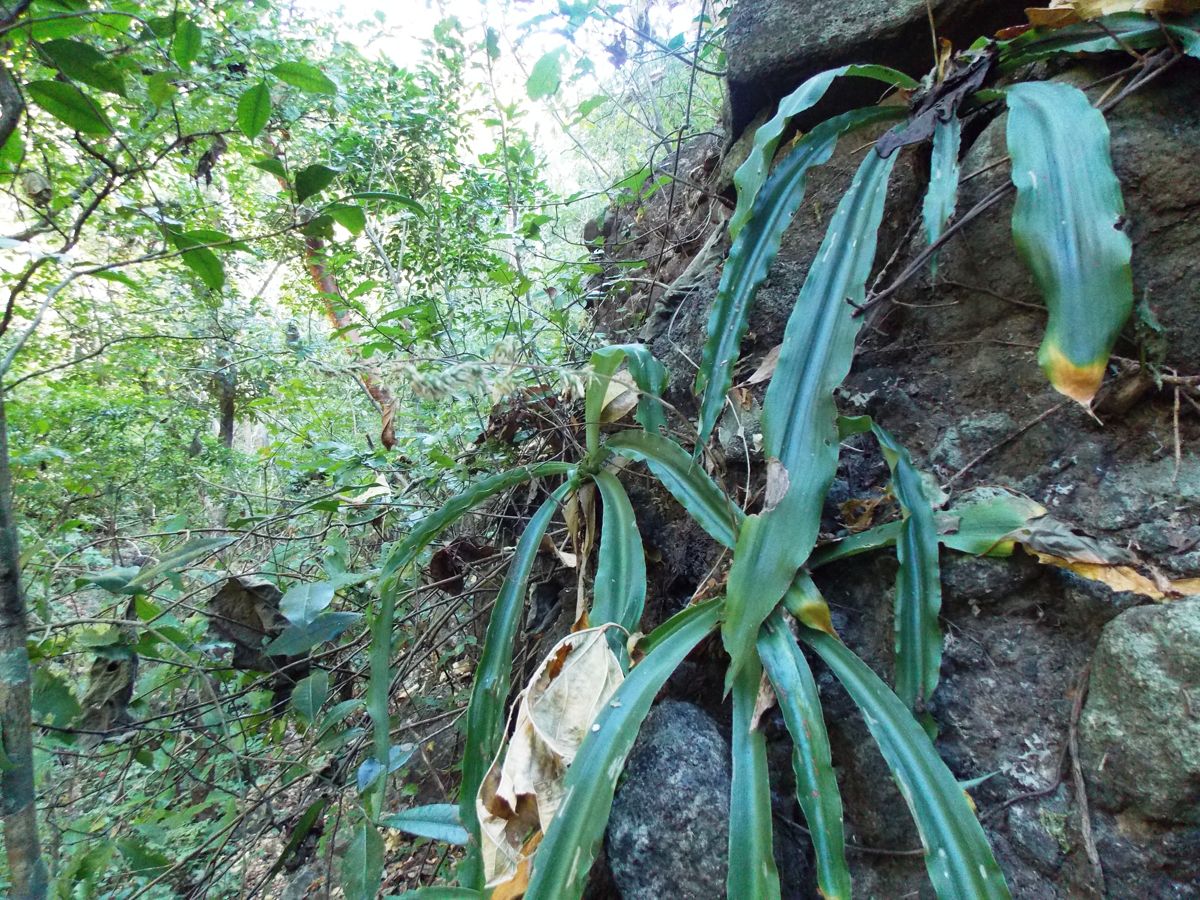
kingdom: Plantae
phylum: Tracheophyta
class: Liliopsida
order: Poales
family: Bromeliaceae
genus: Fosterella
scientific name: Fosterella micrantha
